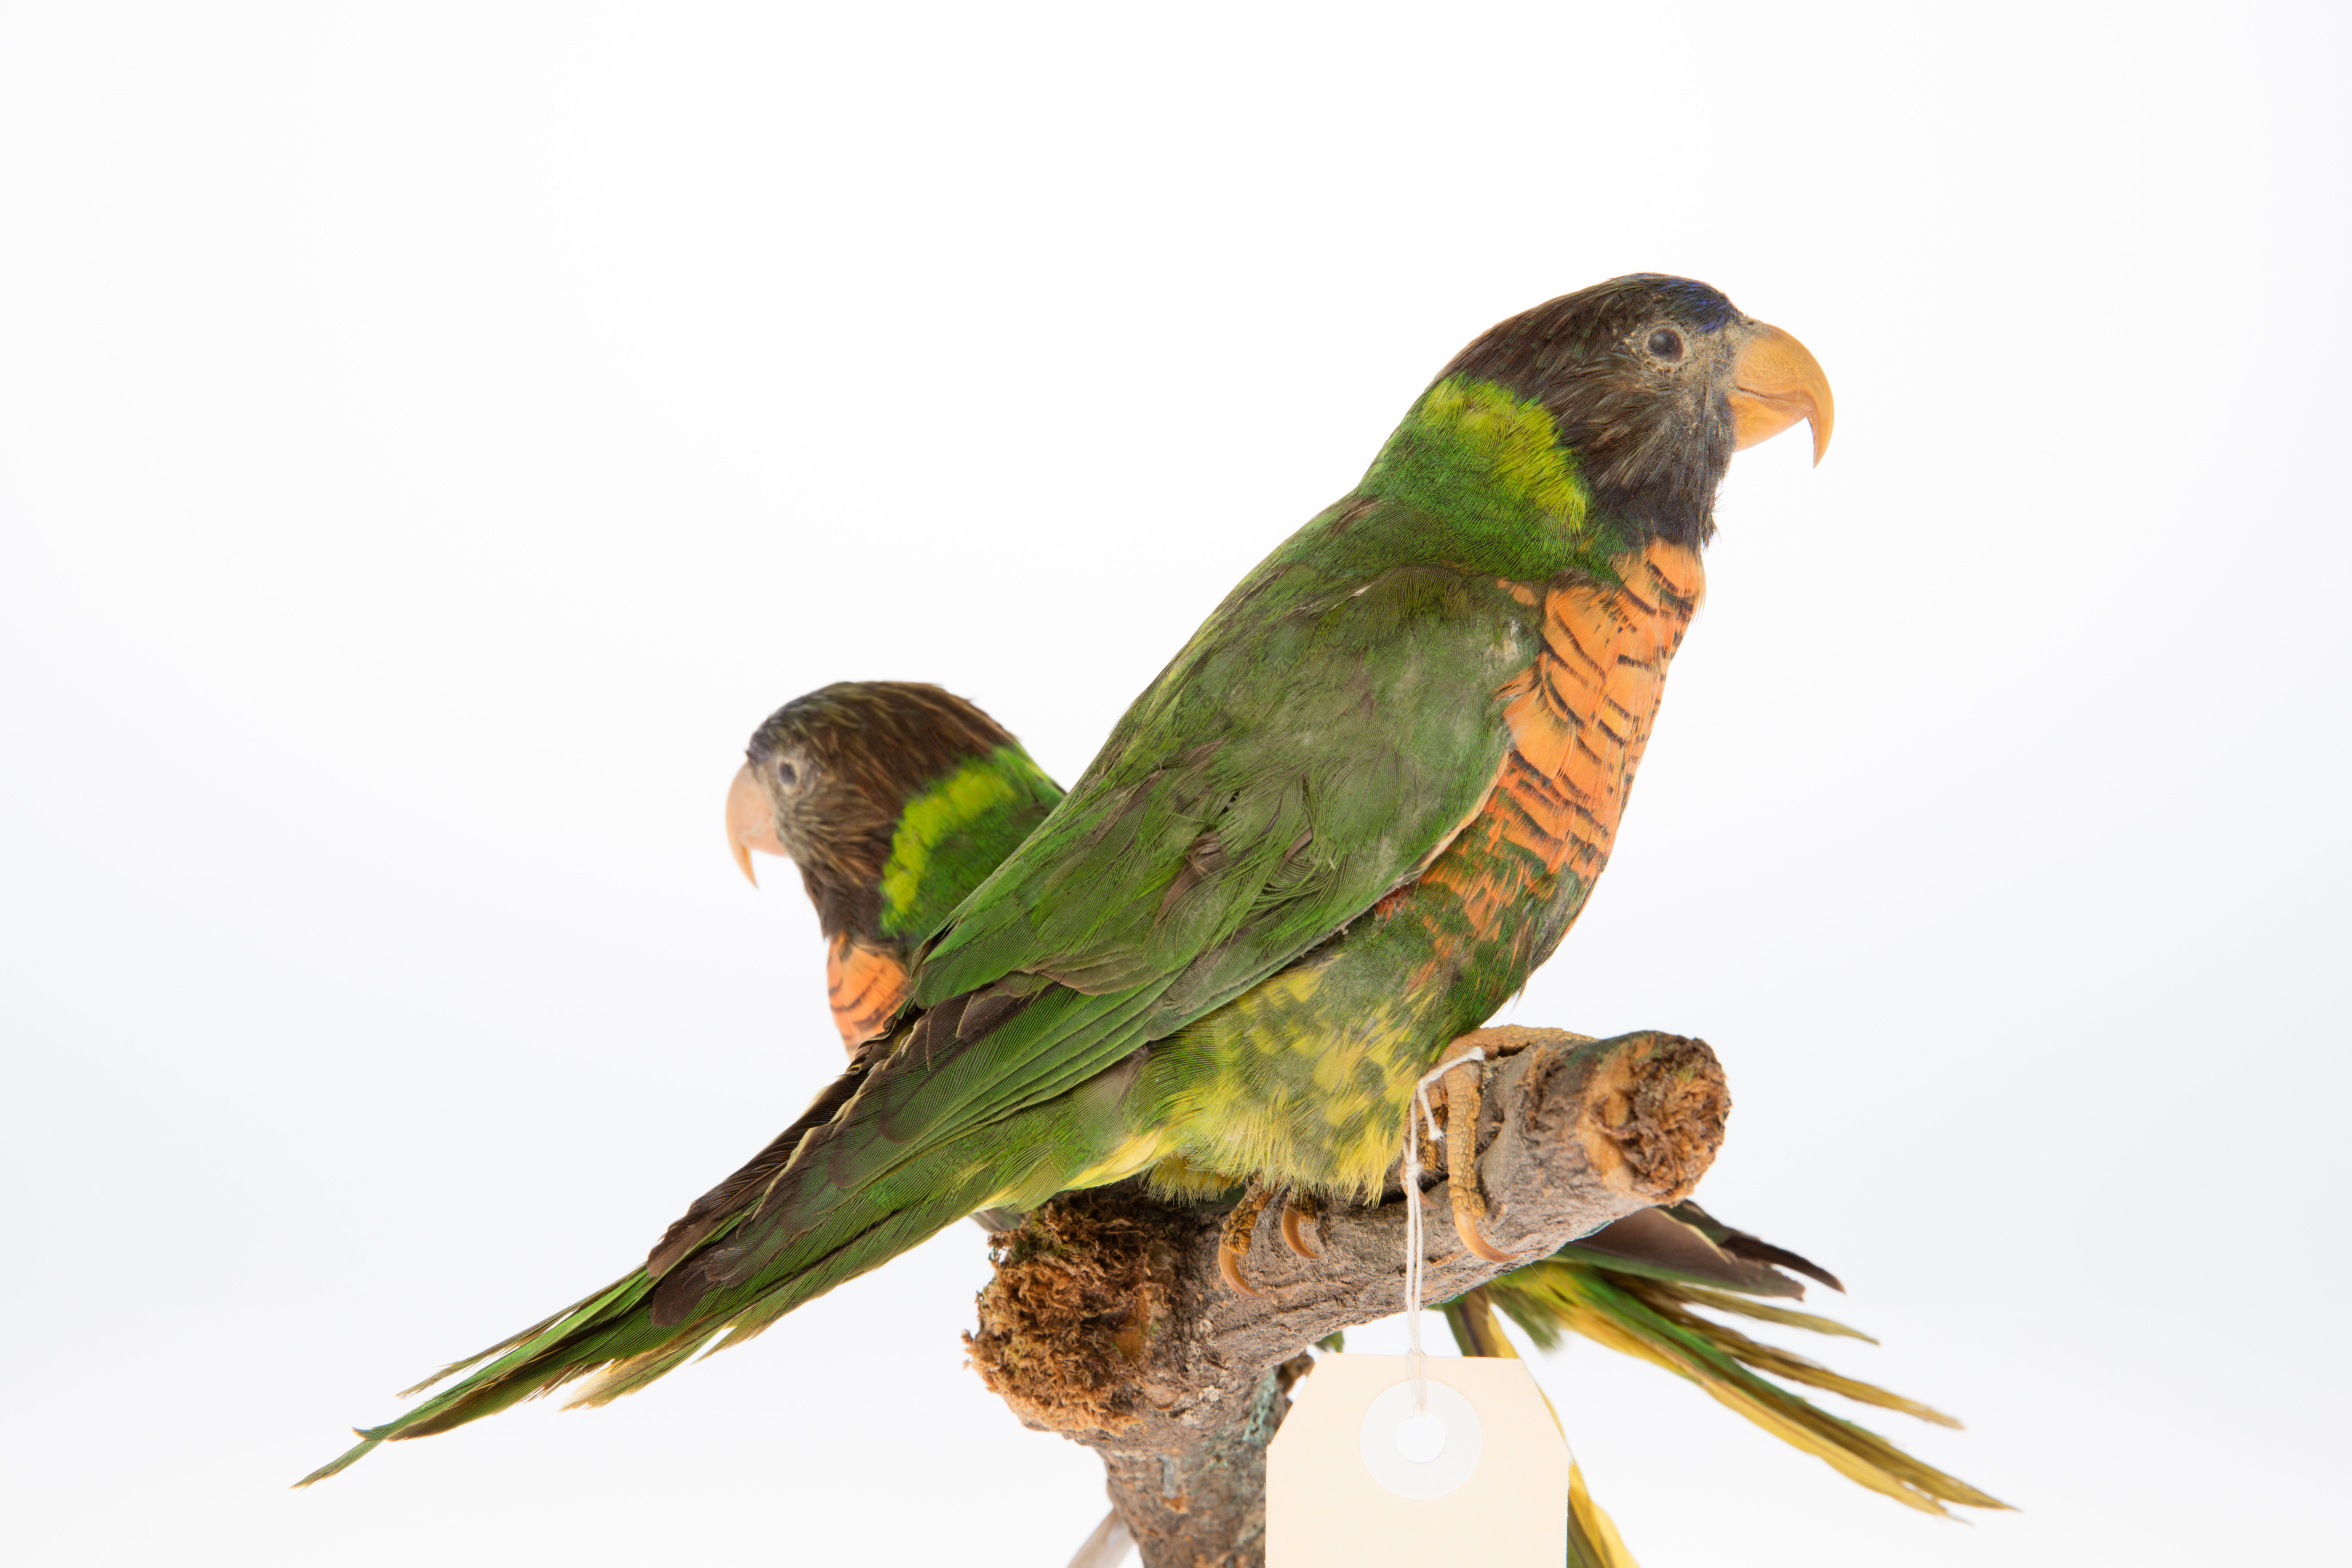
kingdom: Animalia
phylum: Chordata
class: Aves
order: Psittaciformes
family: Psittacidae
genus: Trichoglossus
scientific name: Trichoglossus haematodus
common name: Coconut lorikeet
